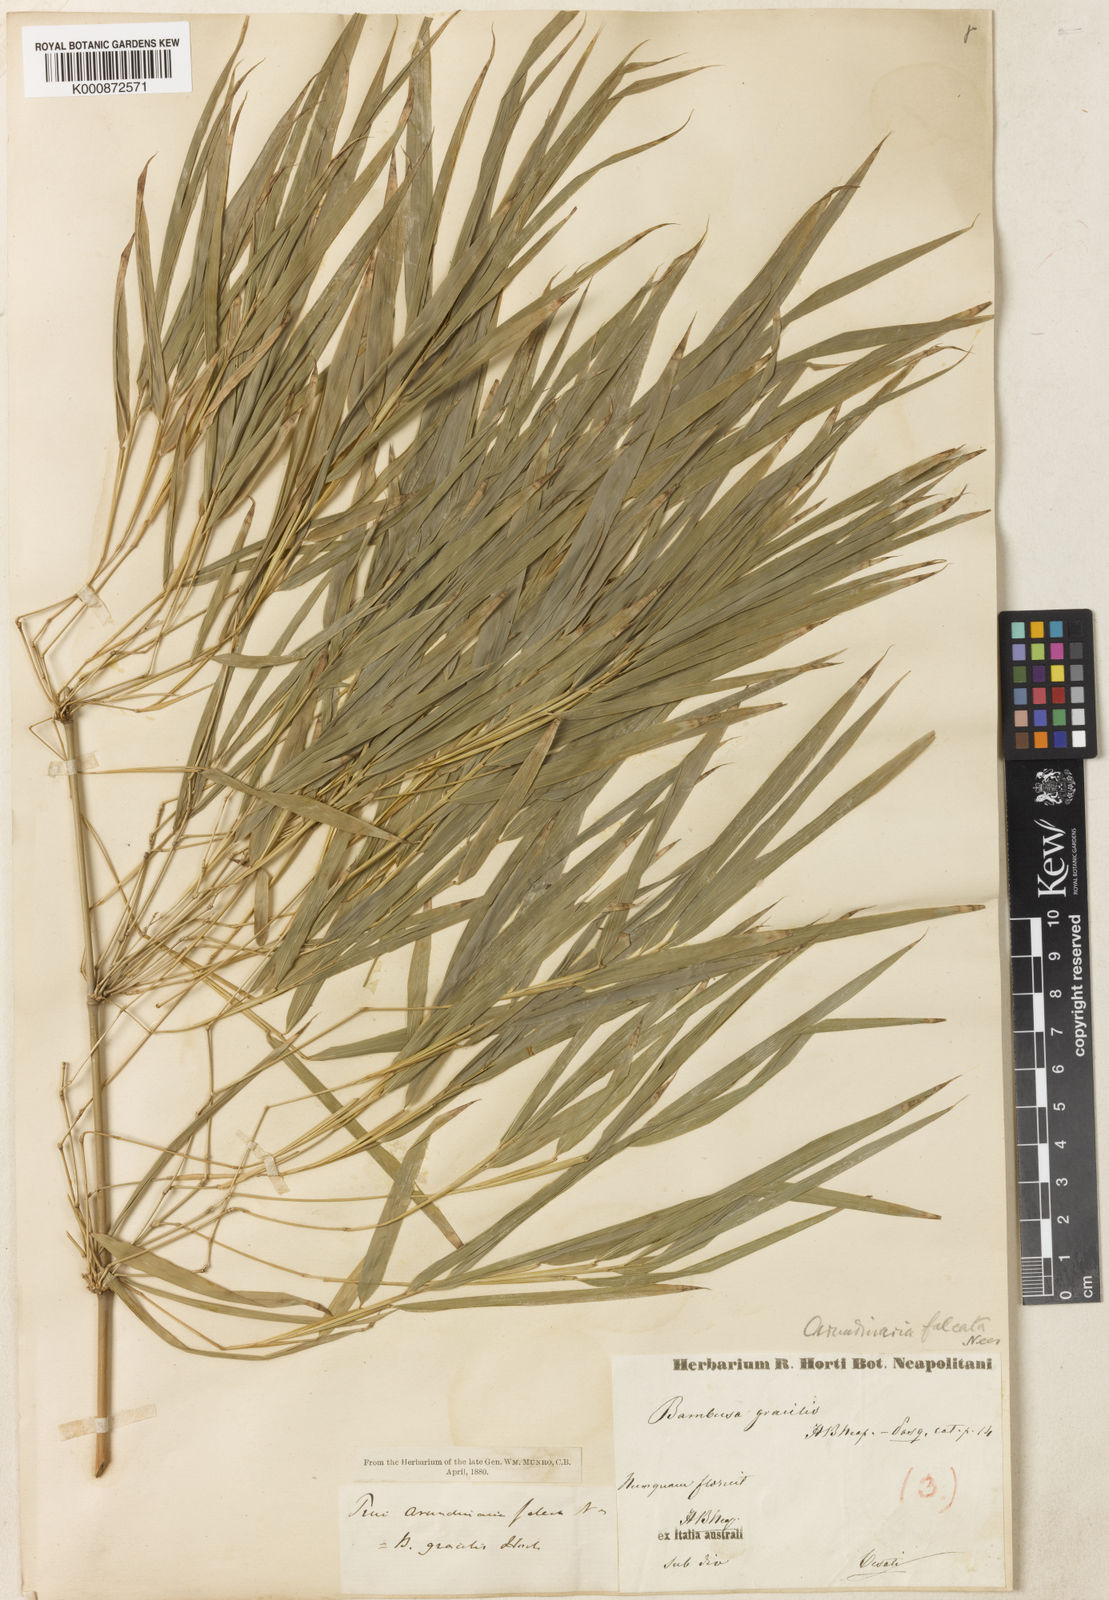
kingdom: Plantae
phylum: Tracheophyta
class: Liliopsida
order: Poales
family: Poaceae
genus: Drepanostachyum
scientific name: Drepanostachyum falcatum
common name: Himalayan bamboo
